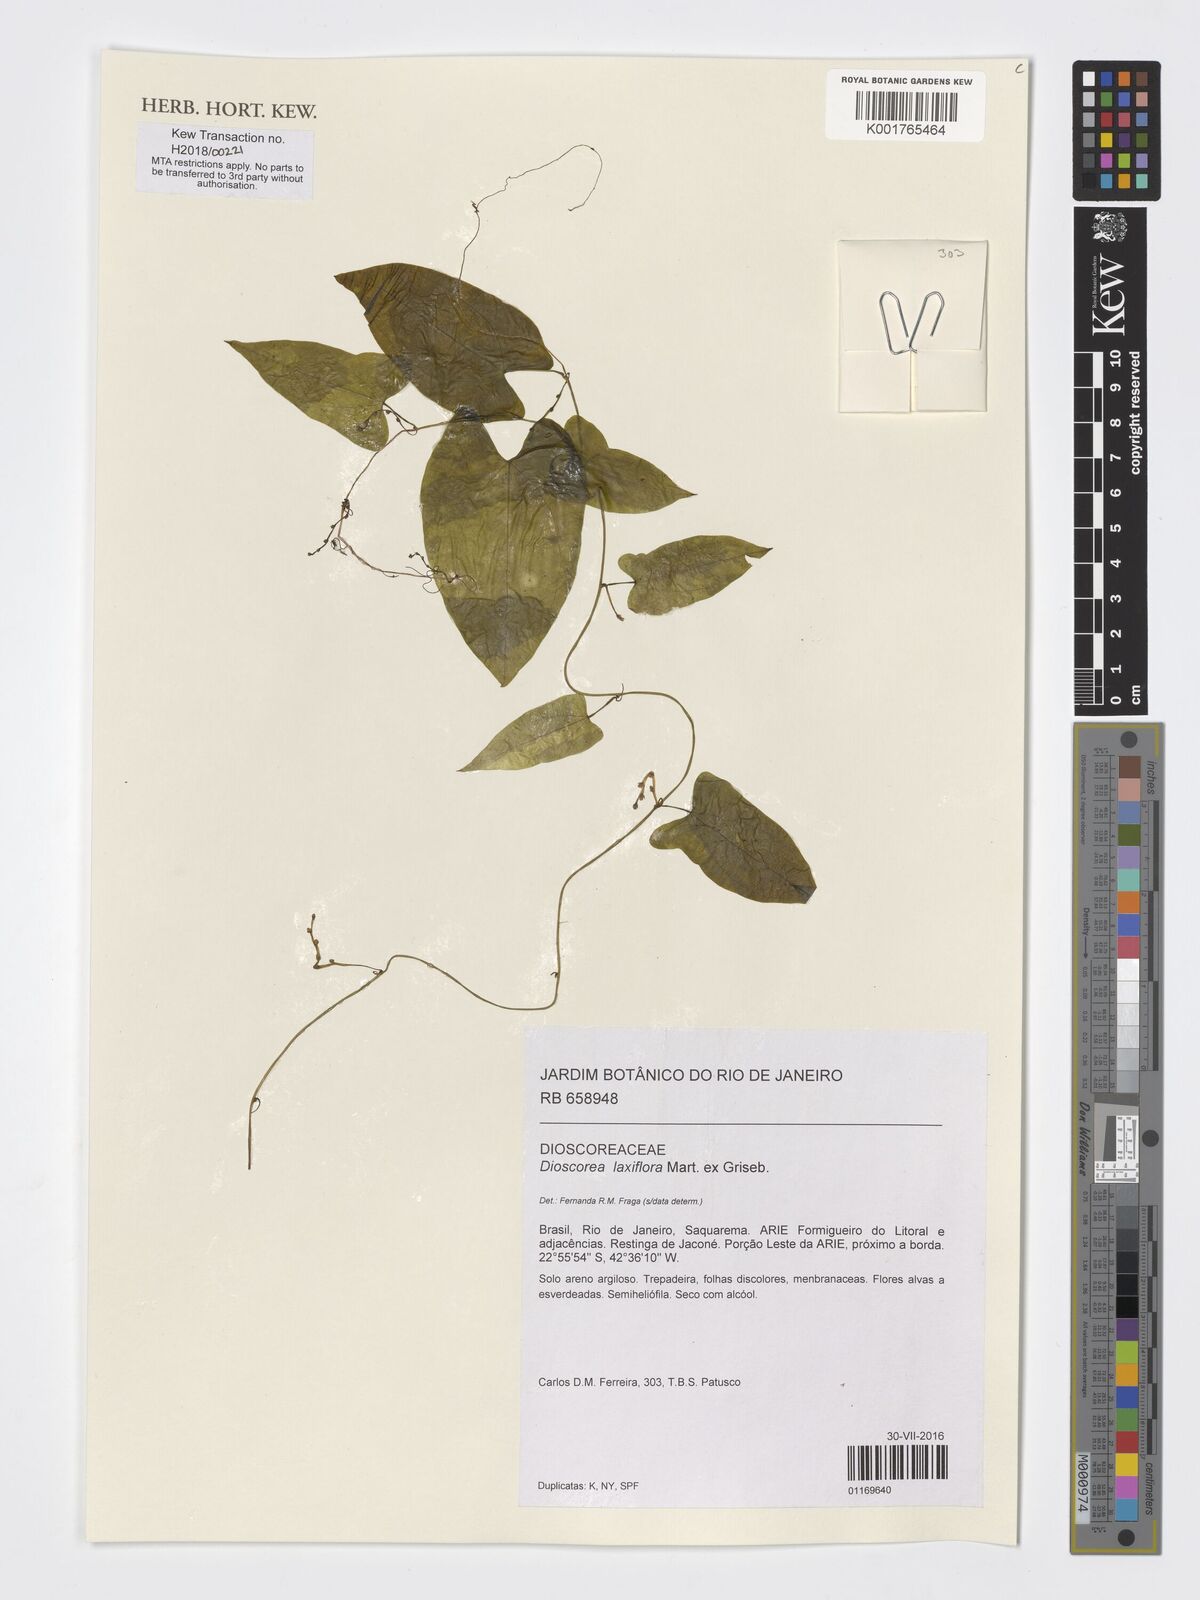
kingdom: Plantae
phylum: Tracheophyta
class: Liliopsida
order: Dioscoreales
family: Dioscoreaceae
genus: Dioscorea
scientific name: Dioscorea laxiflora
